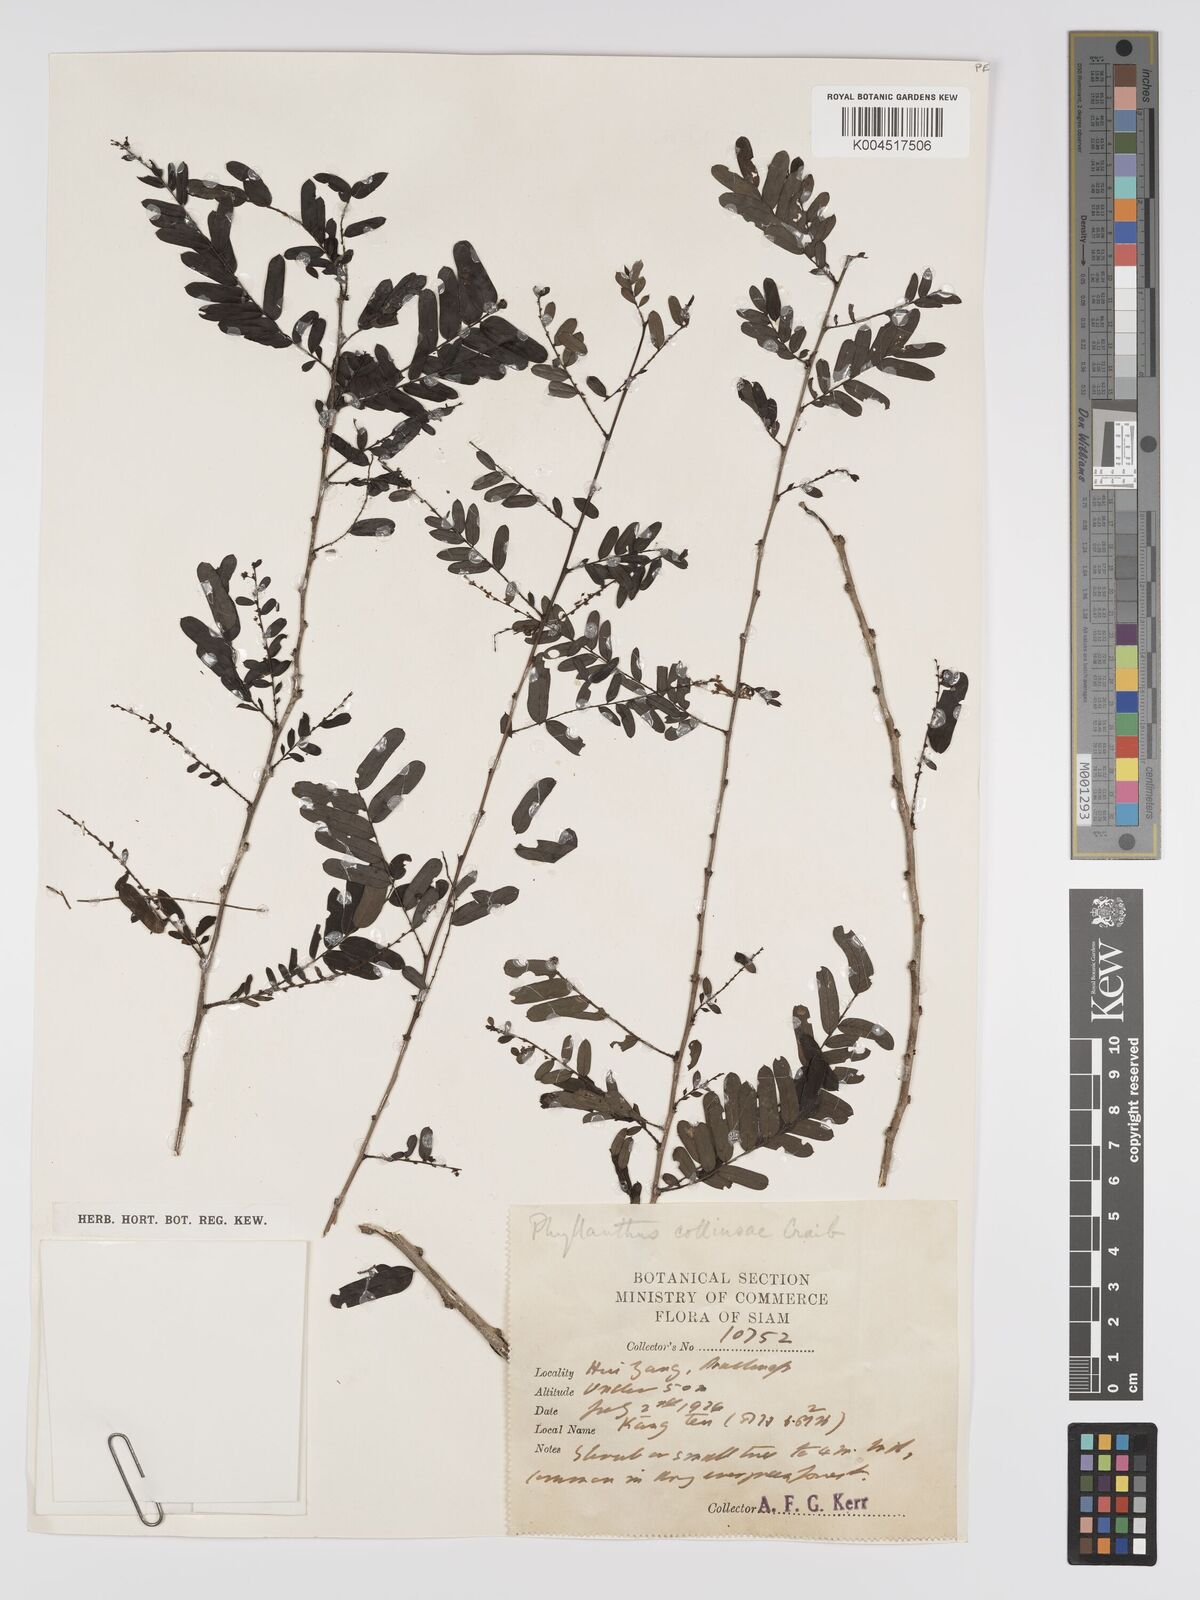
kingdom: Plantae
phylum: Tracheophyta
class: Magnoliopsida
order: Malpighiales
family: Phyllanthaceae
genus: Phyllanthus
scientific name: Phyllanthus collinsiae
